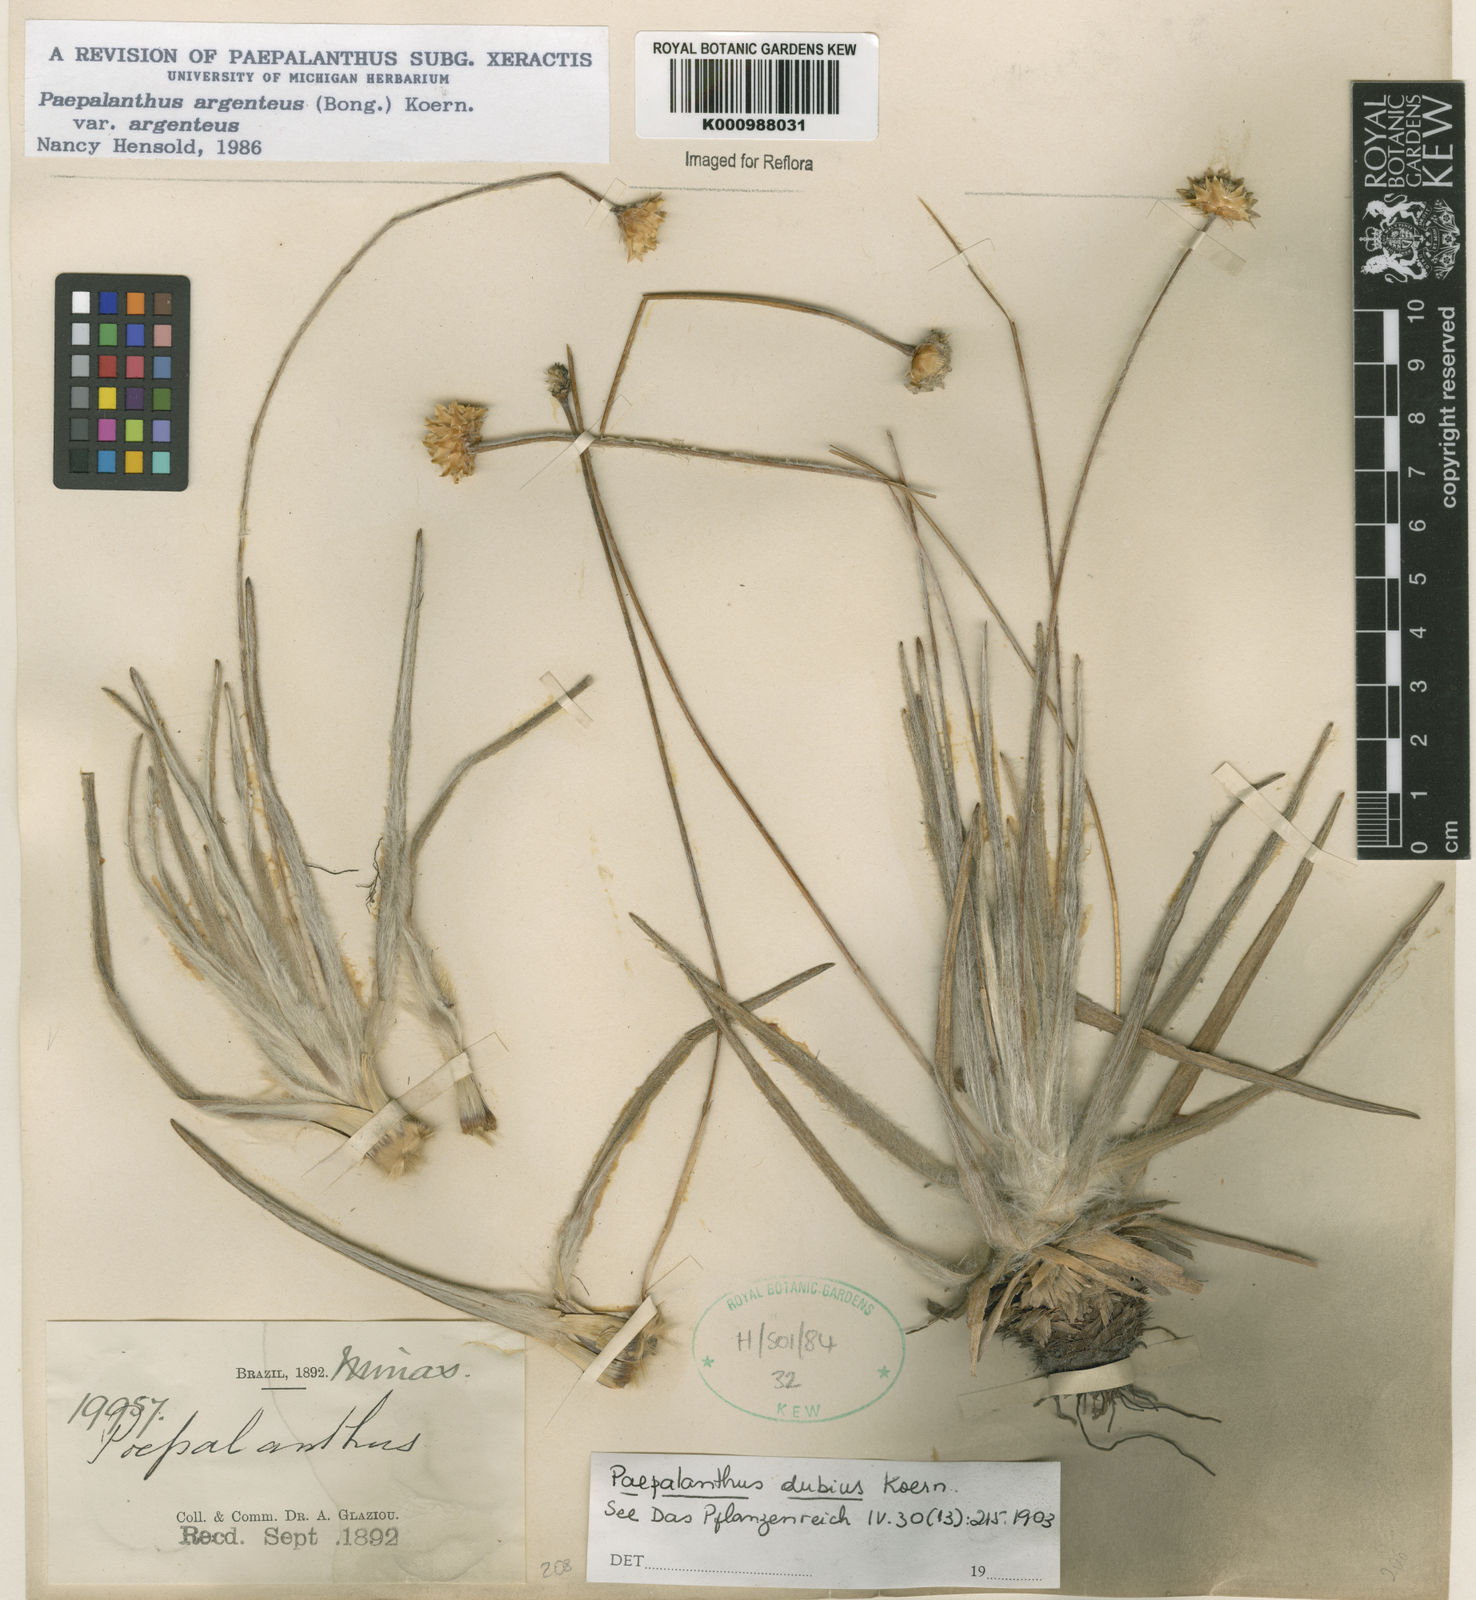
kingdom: Plantae
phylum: Tracheophyta
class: Liliopsida
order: Poales
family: Eriocaulaceae
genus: Paepalanthus
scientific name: Paepalanthus
